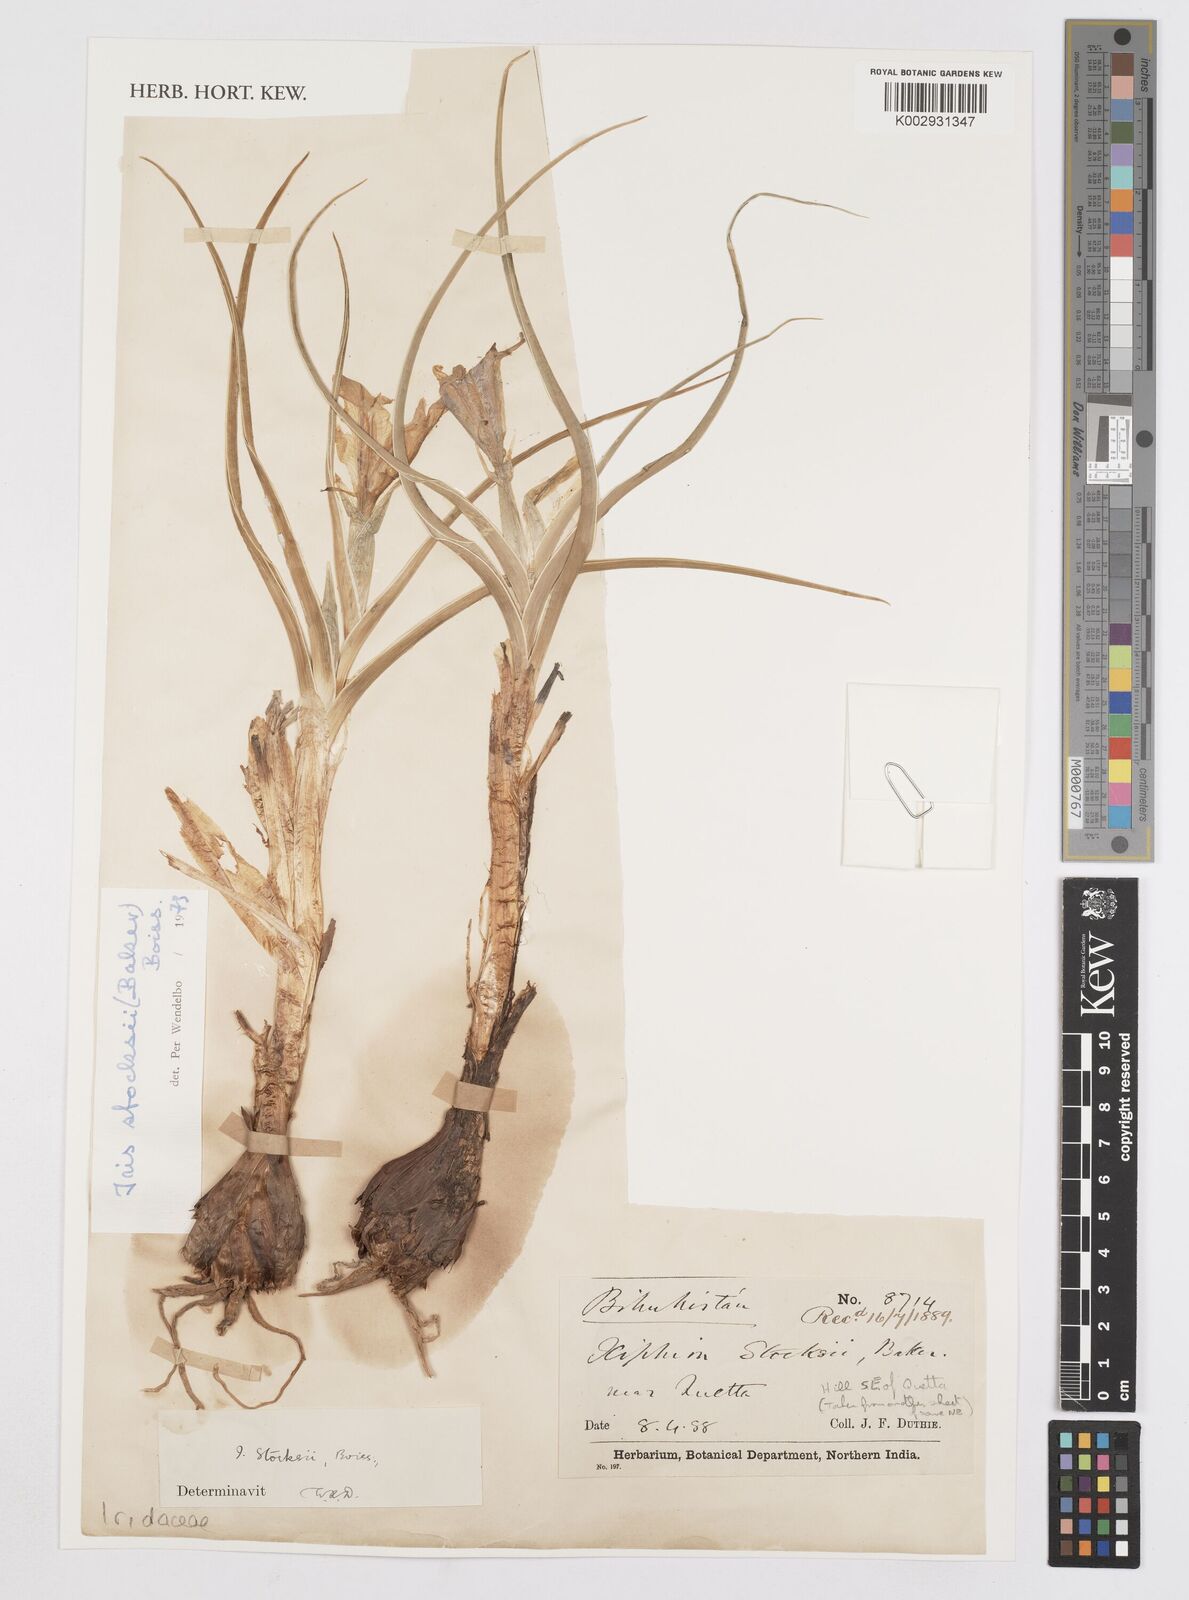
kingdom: Plantae
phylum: Tracheophyta
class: Liliopsida
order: Asparagales
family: Iridaceae
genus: Iris
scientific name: Iris stocksii
